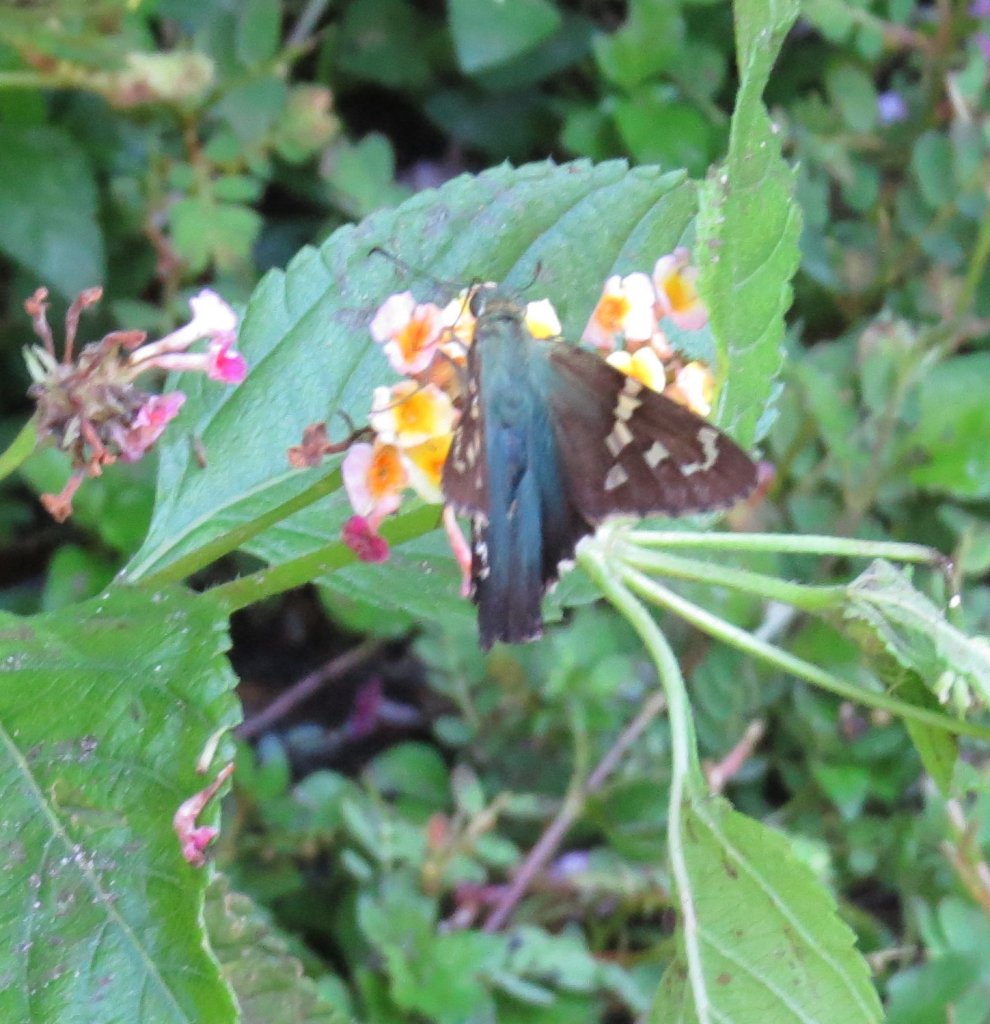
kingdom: Animalia
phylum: Arthropoda
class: Insecta
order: Lepidoptera
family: Hesperiidae
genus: Urbanus
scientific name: Urbanus proteus
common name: Long-tailed Skipper
